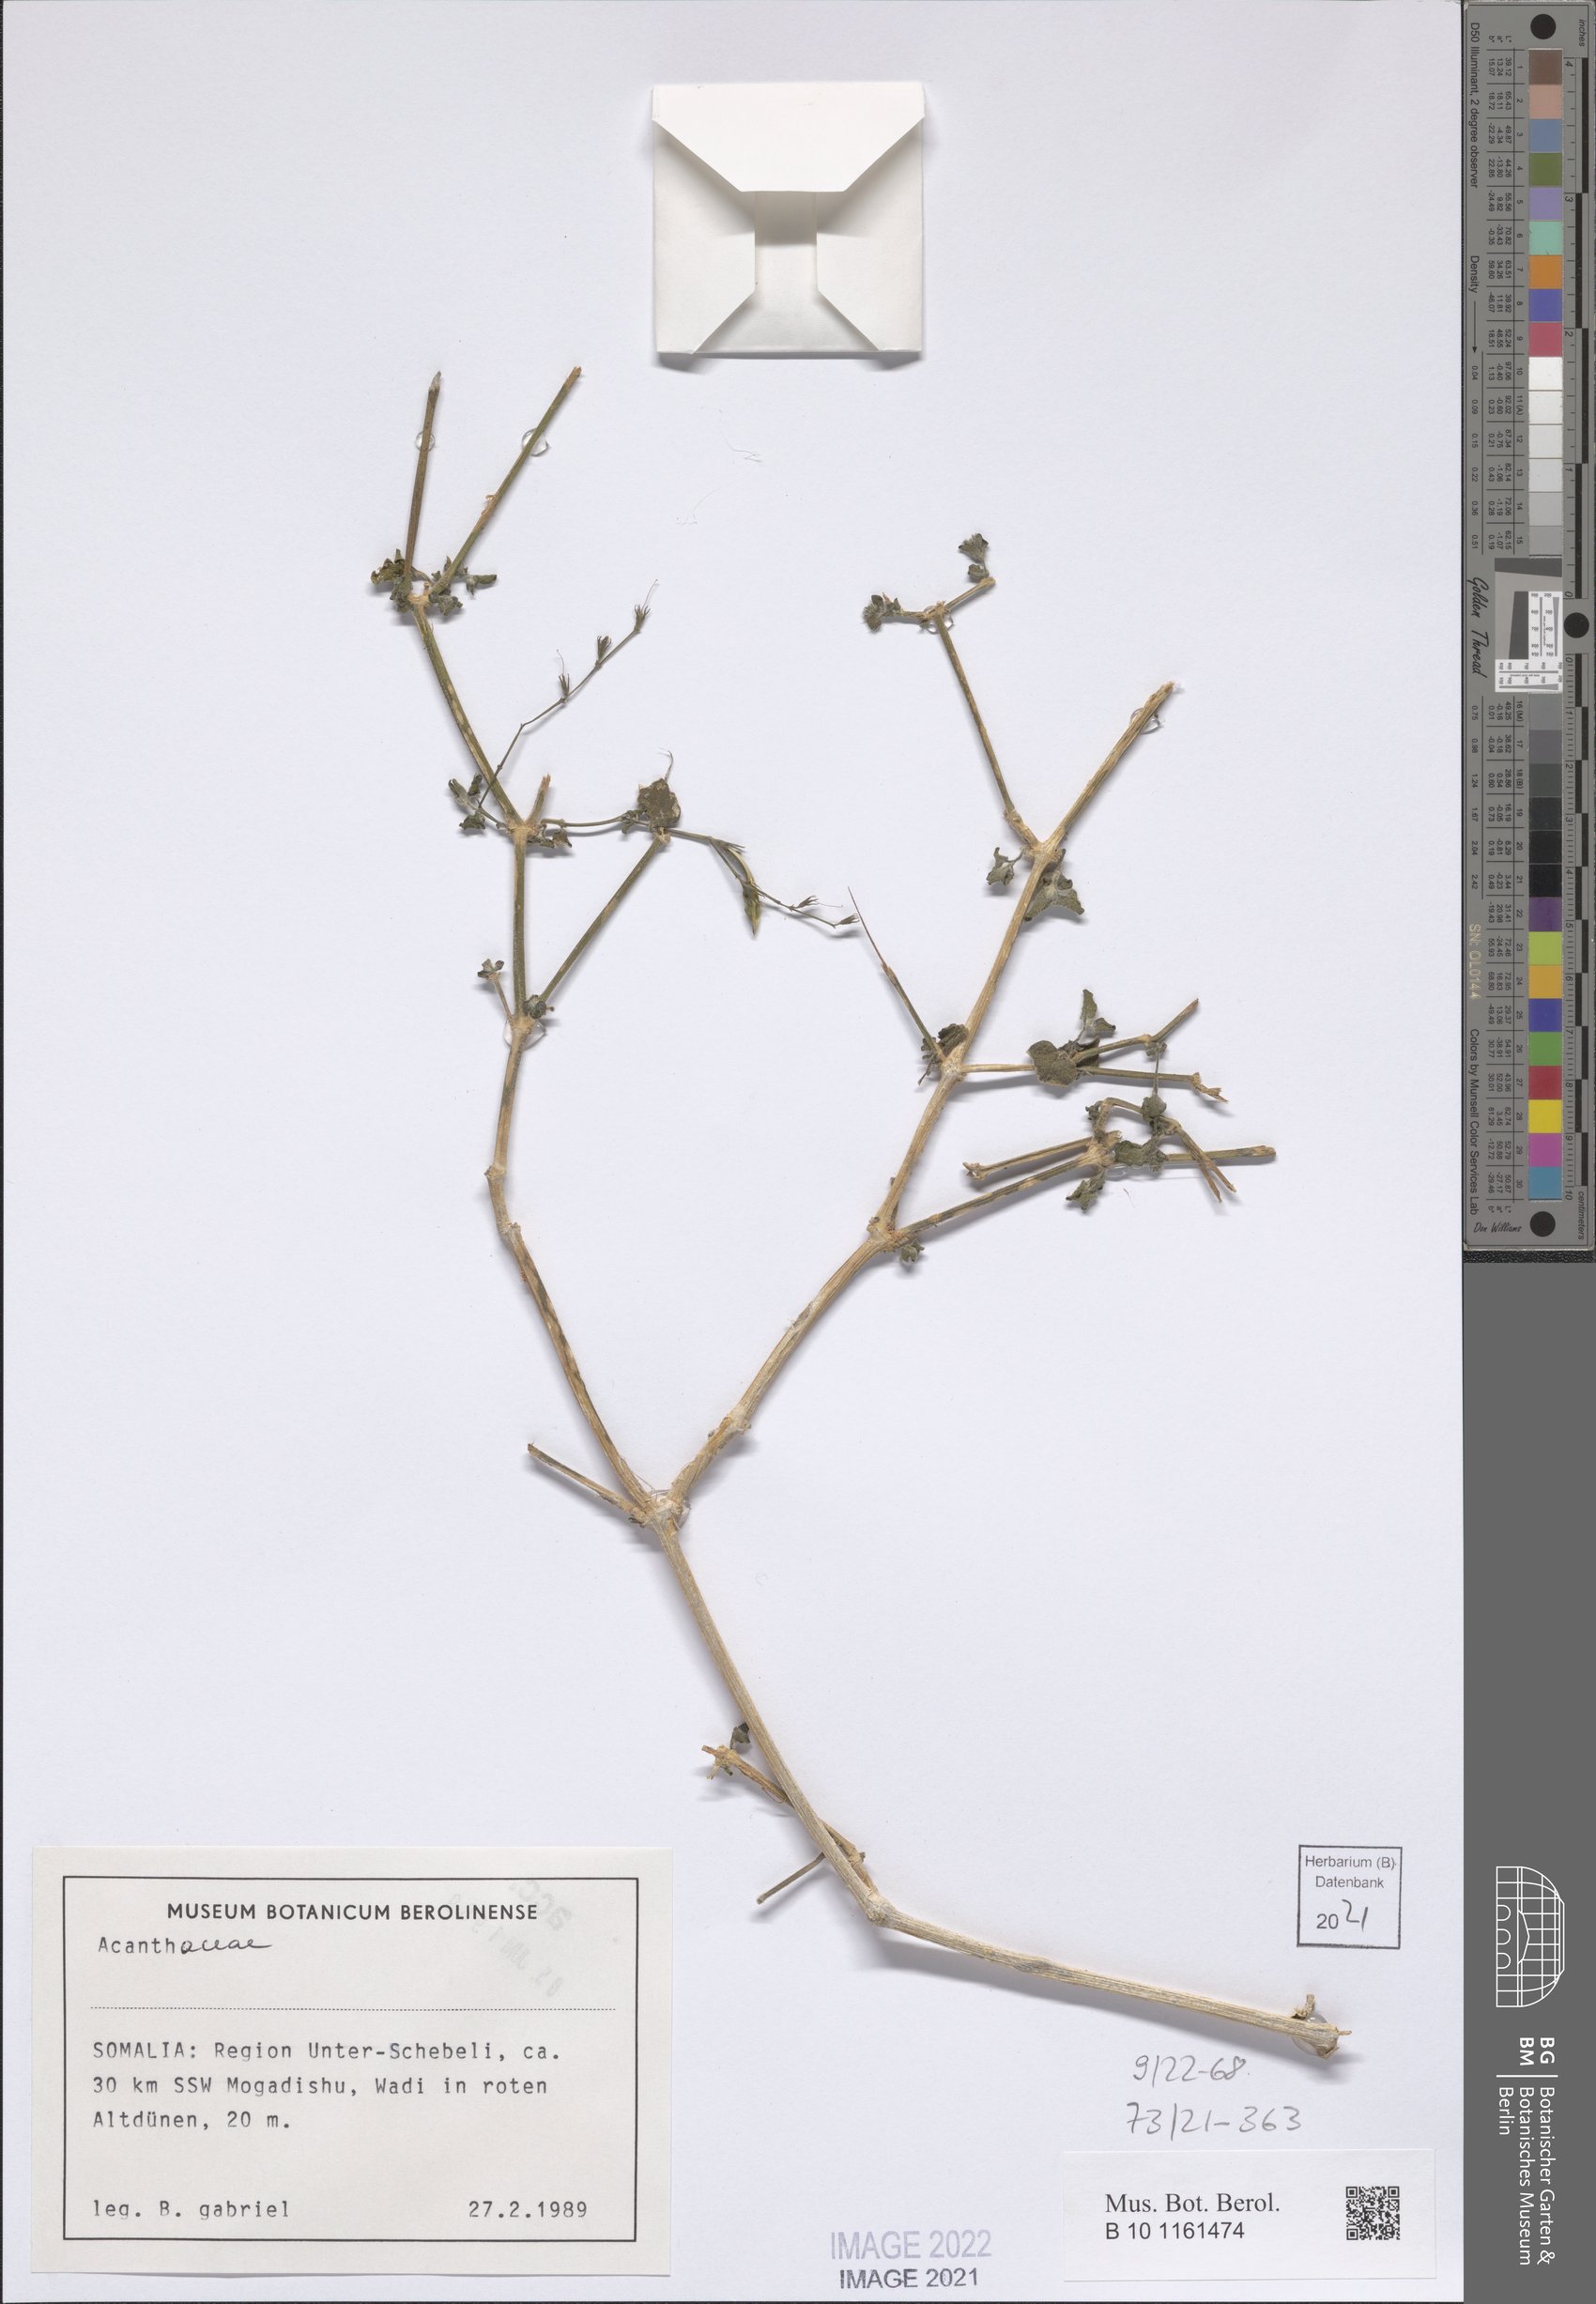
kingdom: Plantae
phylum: Tracheophyta
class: Magnoliopsida
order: Lamiales
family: Acanthaceae
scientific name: Acanthaceae
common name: Acanthaceae
